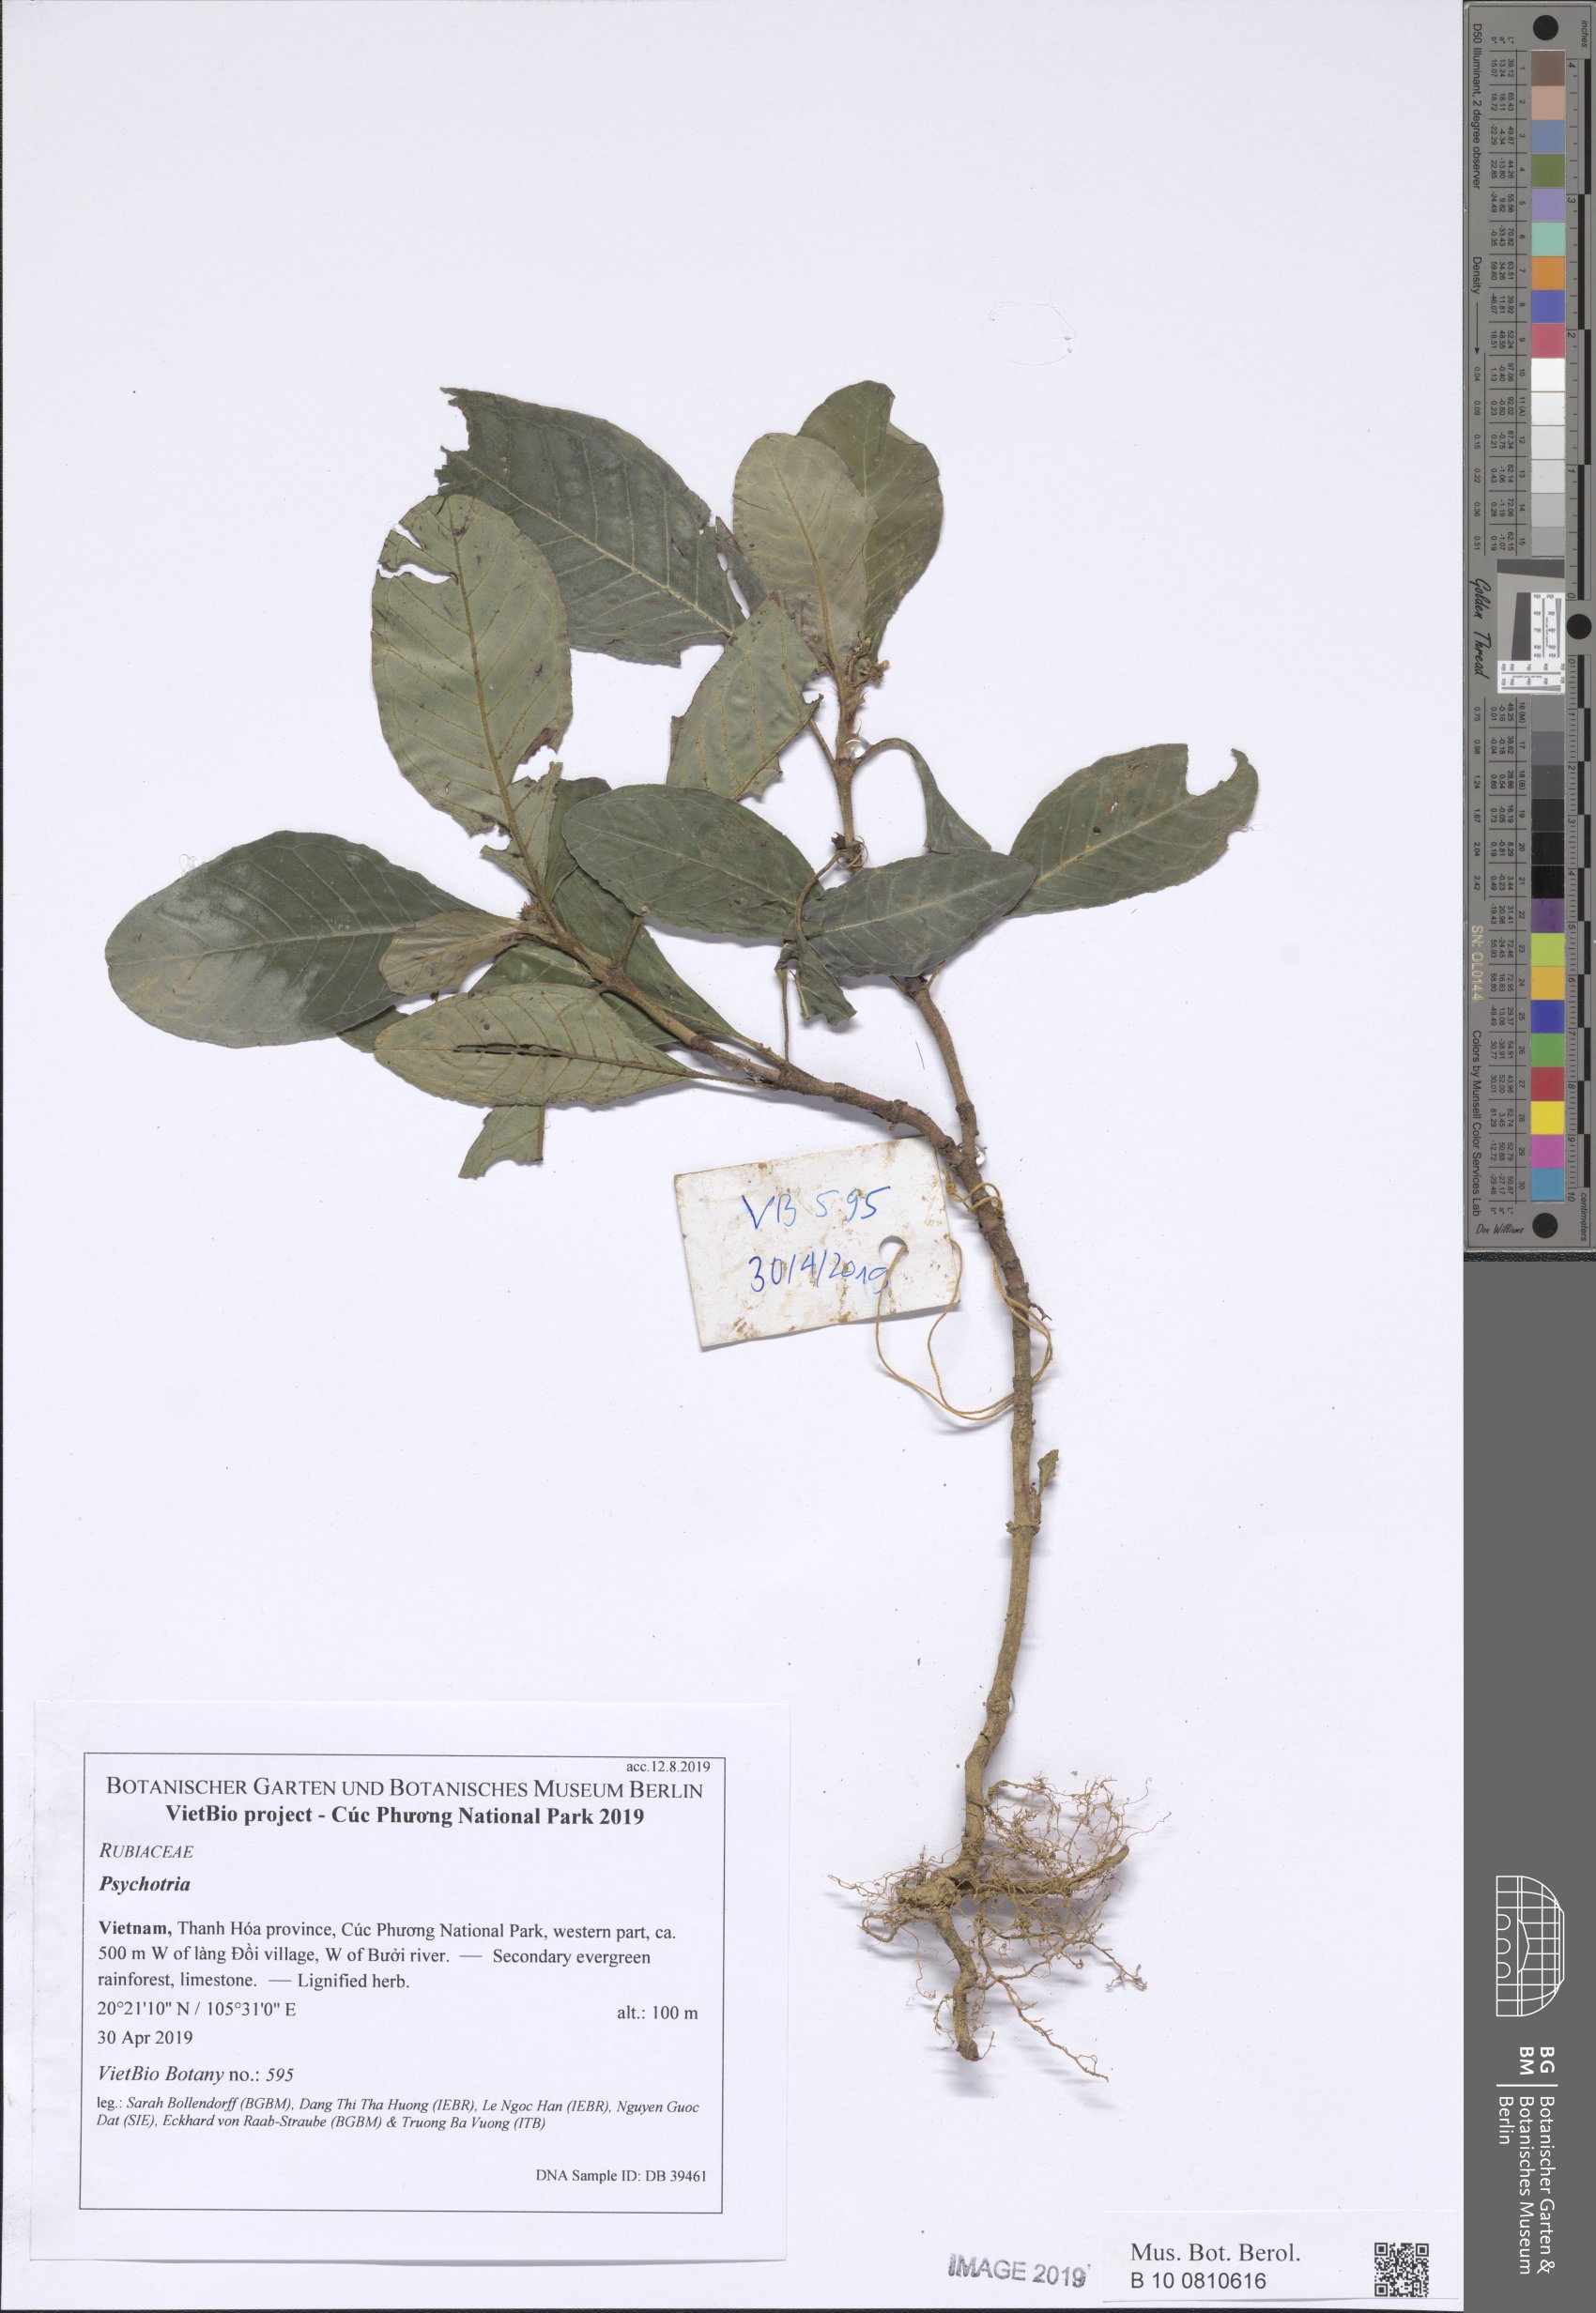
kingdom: Plantae
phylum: Tracheophyta
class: Magnoliopsida
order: Gentianales
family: Rubiaceae
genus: Psychotria
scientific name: Psychotria
